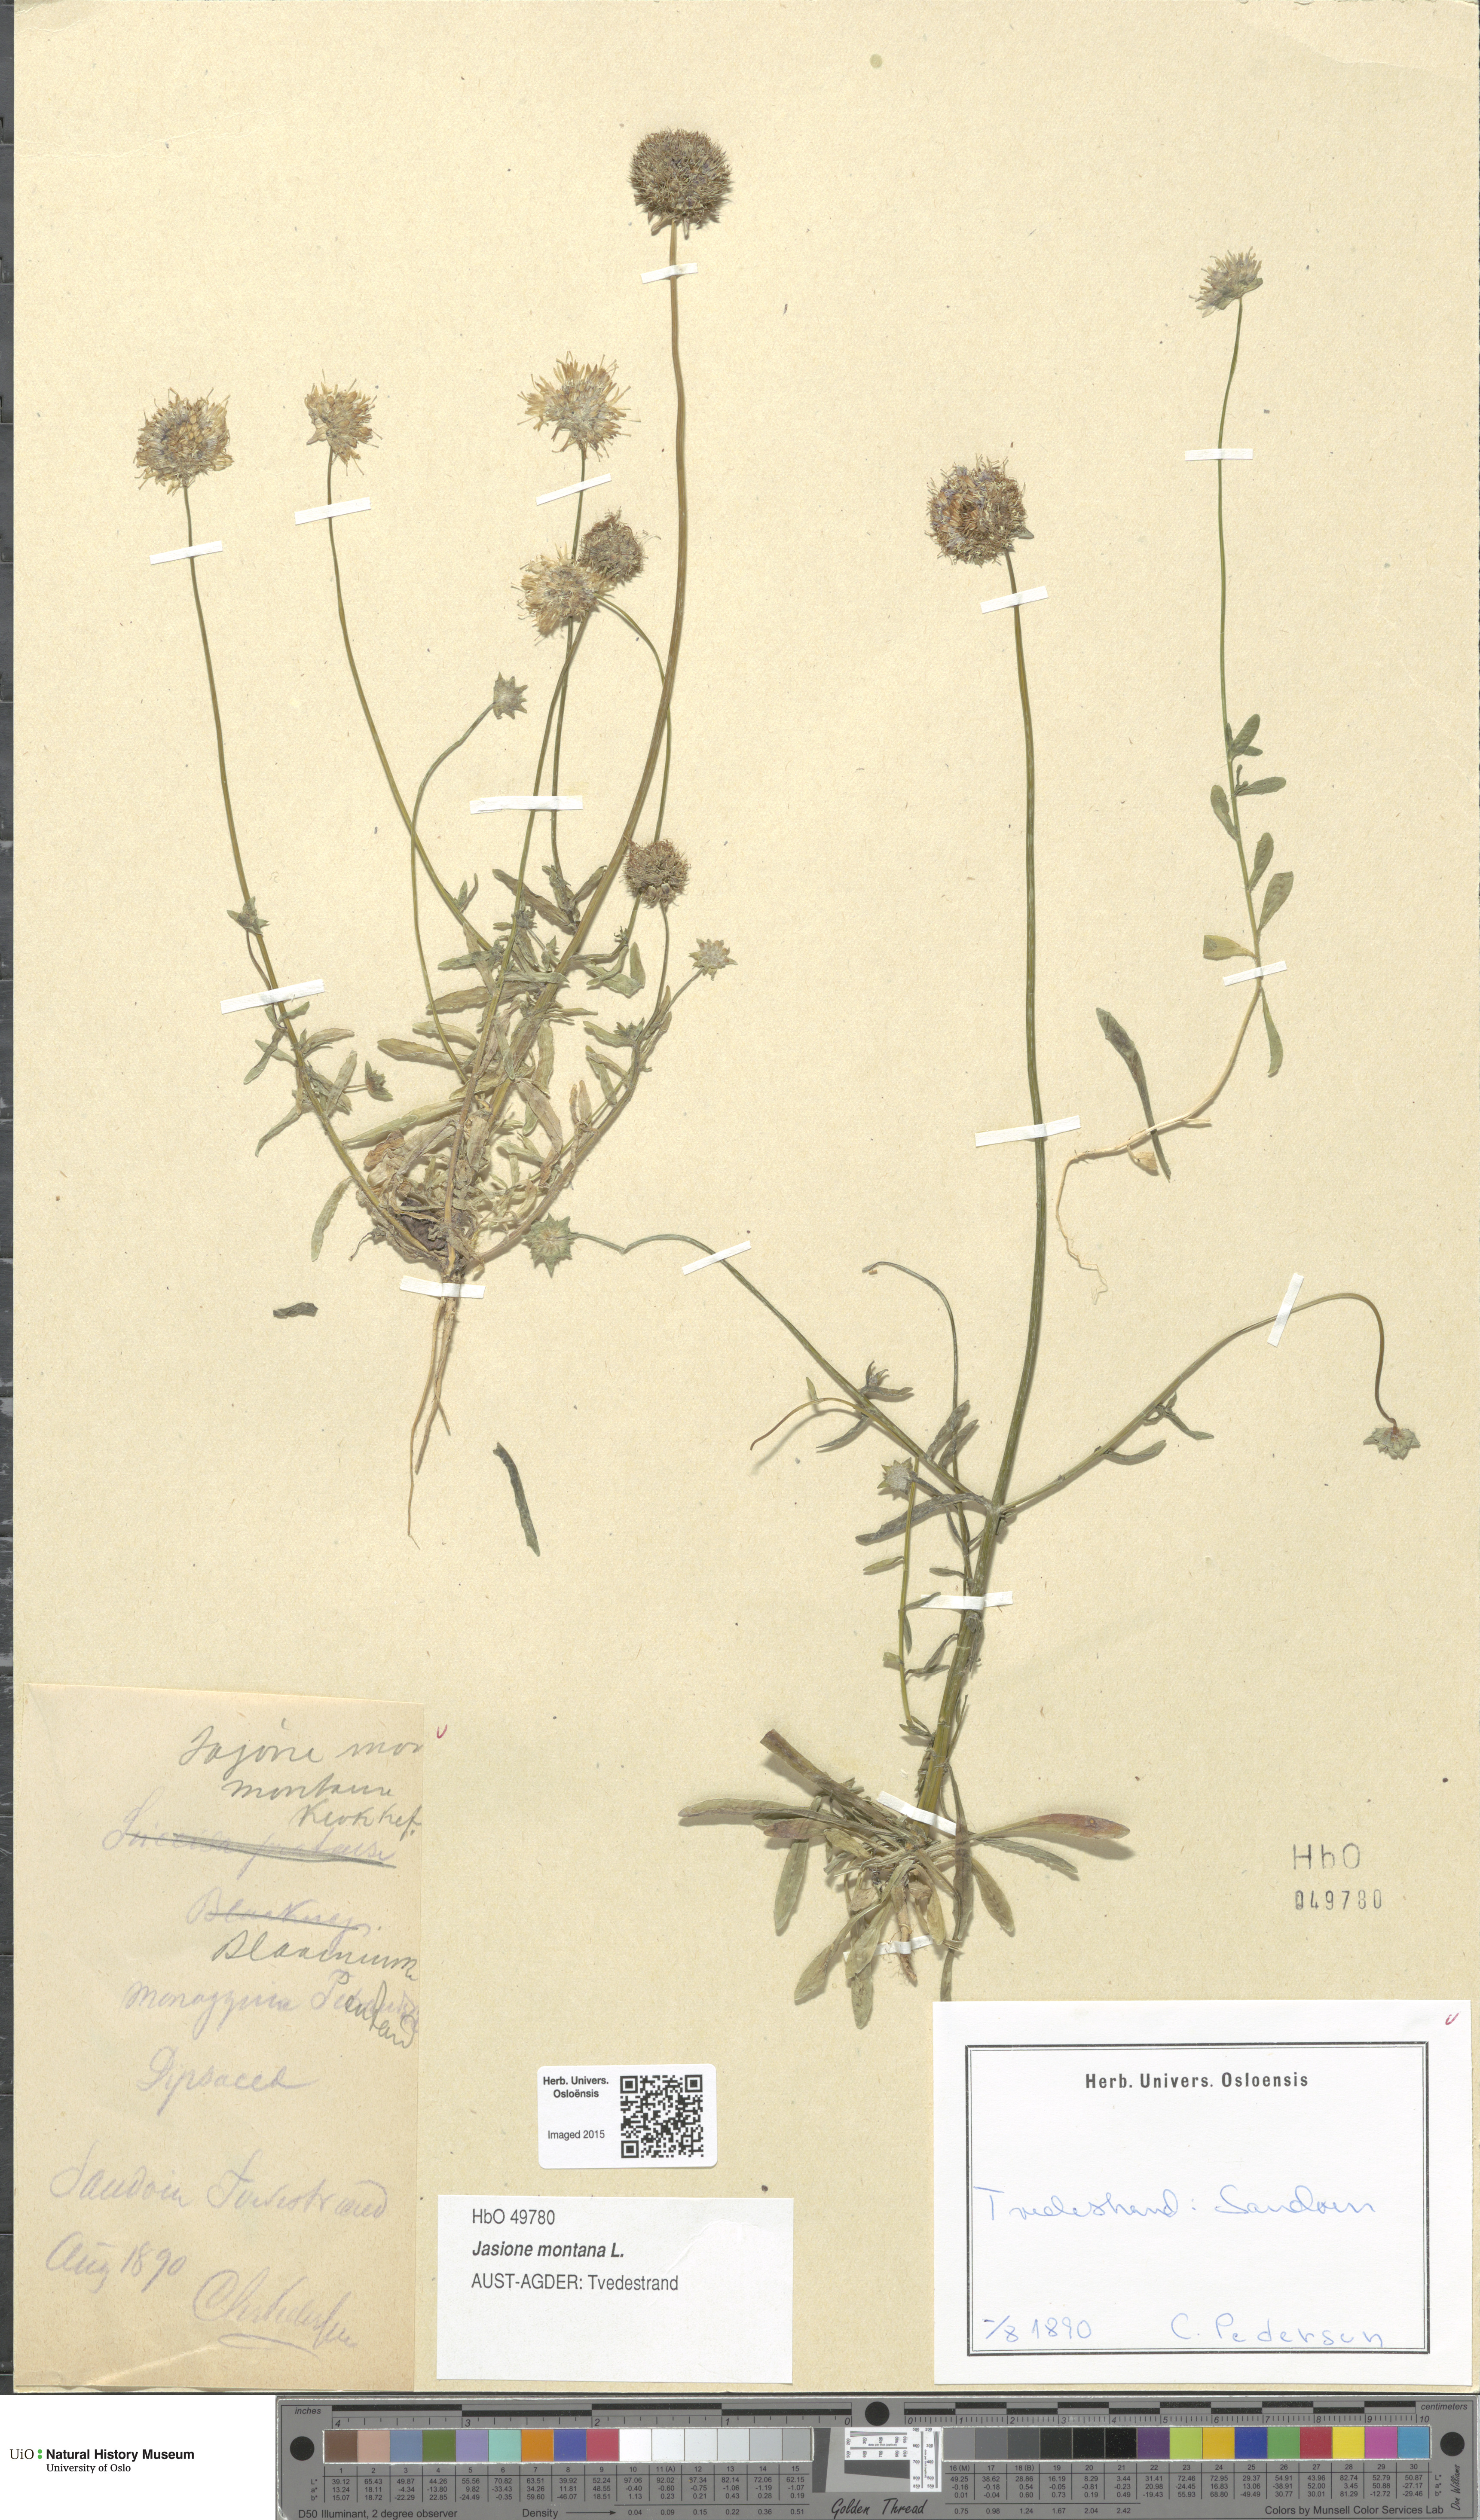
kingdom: Plantae
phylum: Tracheophyta
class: Magnoliopsida
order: Asterales
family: Campanulaceae
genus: Jasione
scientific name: Jasione montana
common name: Sheep's-bit
